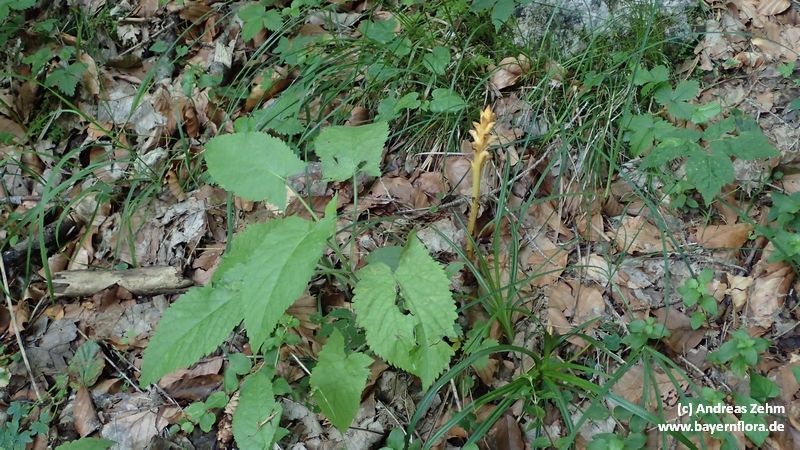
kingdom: Plantae
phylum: Tracheophyta
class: Magnoliopsida
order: Lamiales
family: Orobanchaceae
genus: Orobanche
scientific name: Orobanche salviae
